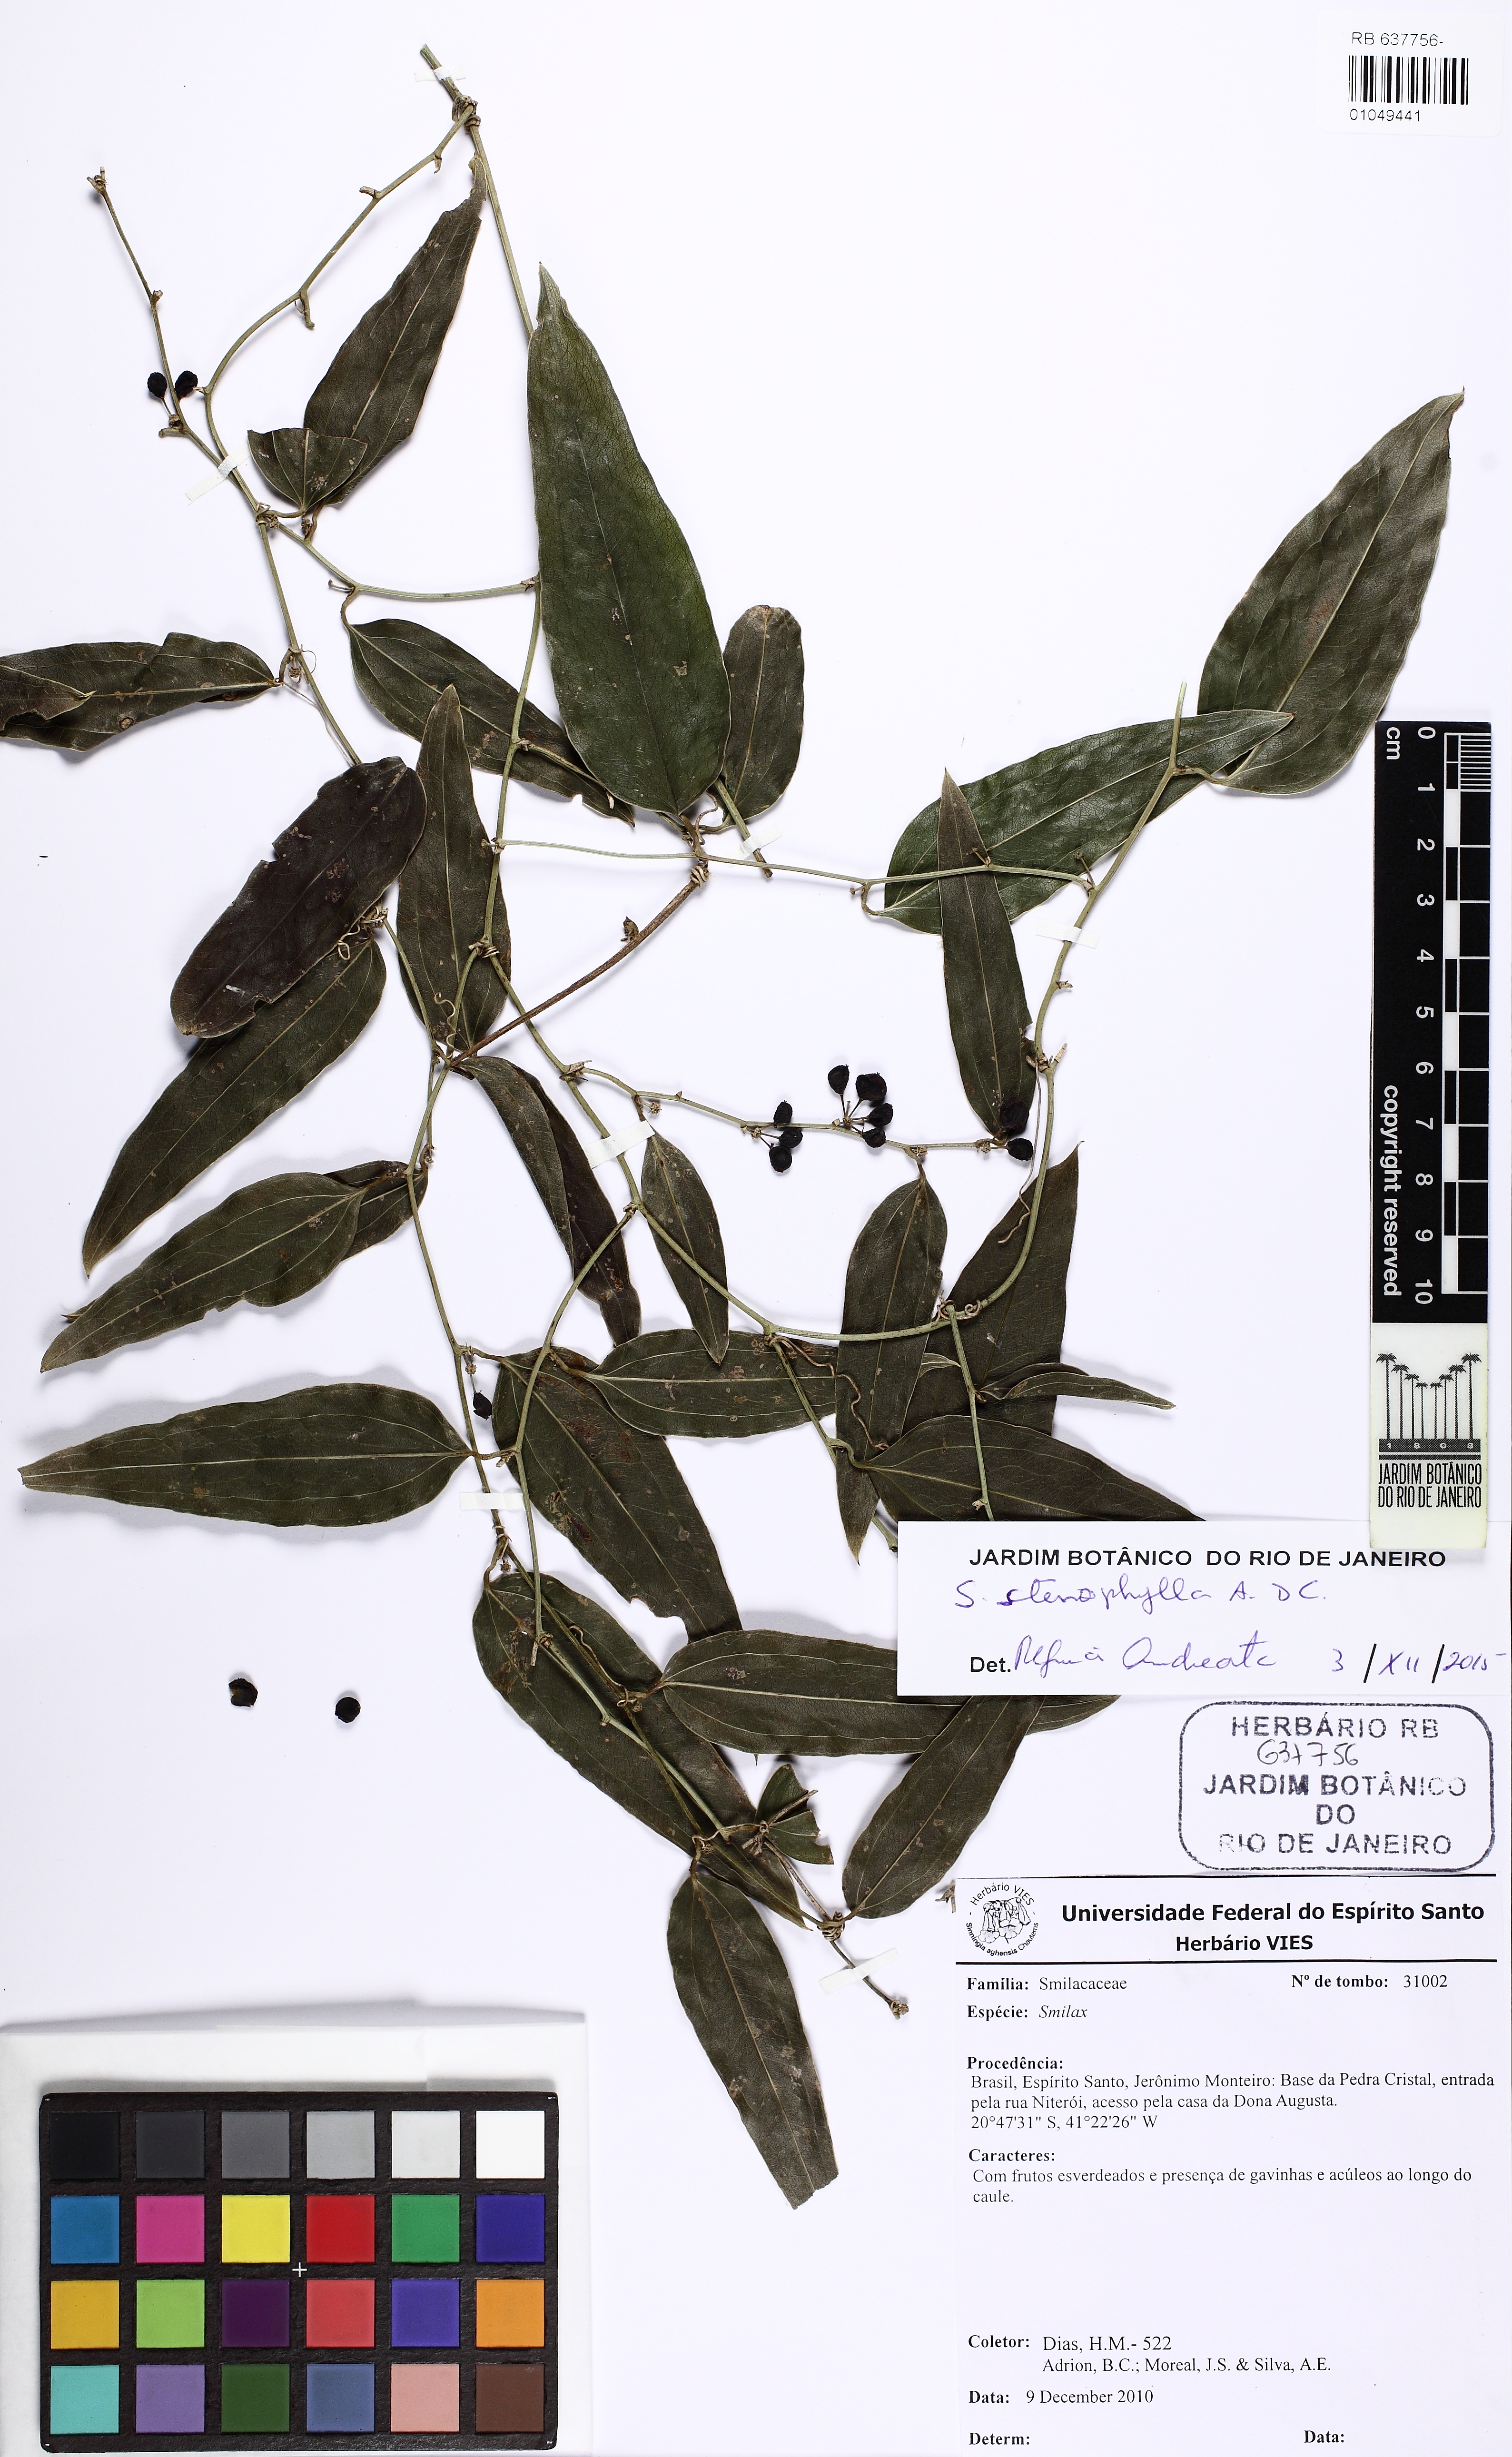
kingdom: Plantae
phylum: Tracheophyta
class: Liliopsida
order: Liliales
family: Smilacaceae
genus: Smilax
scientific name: Smilax stenophylla
